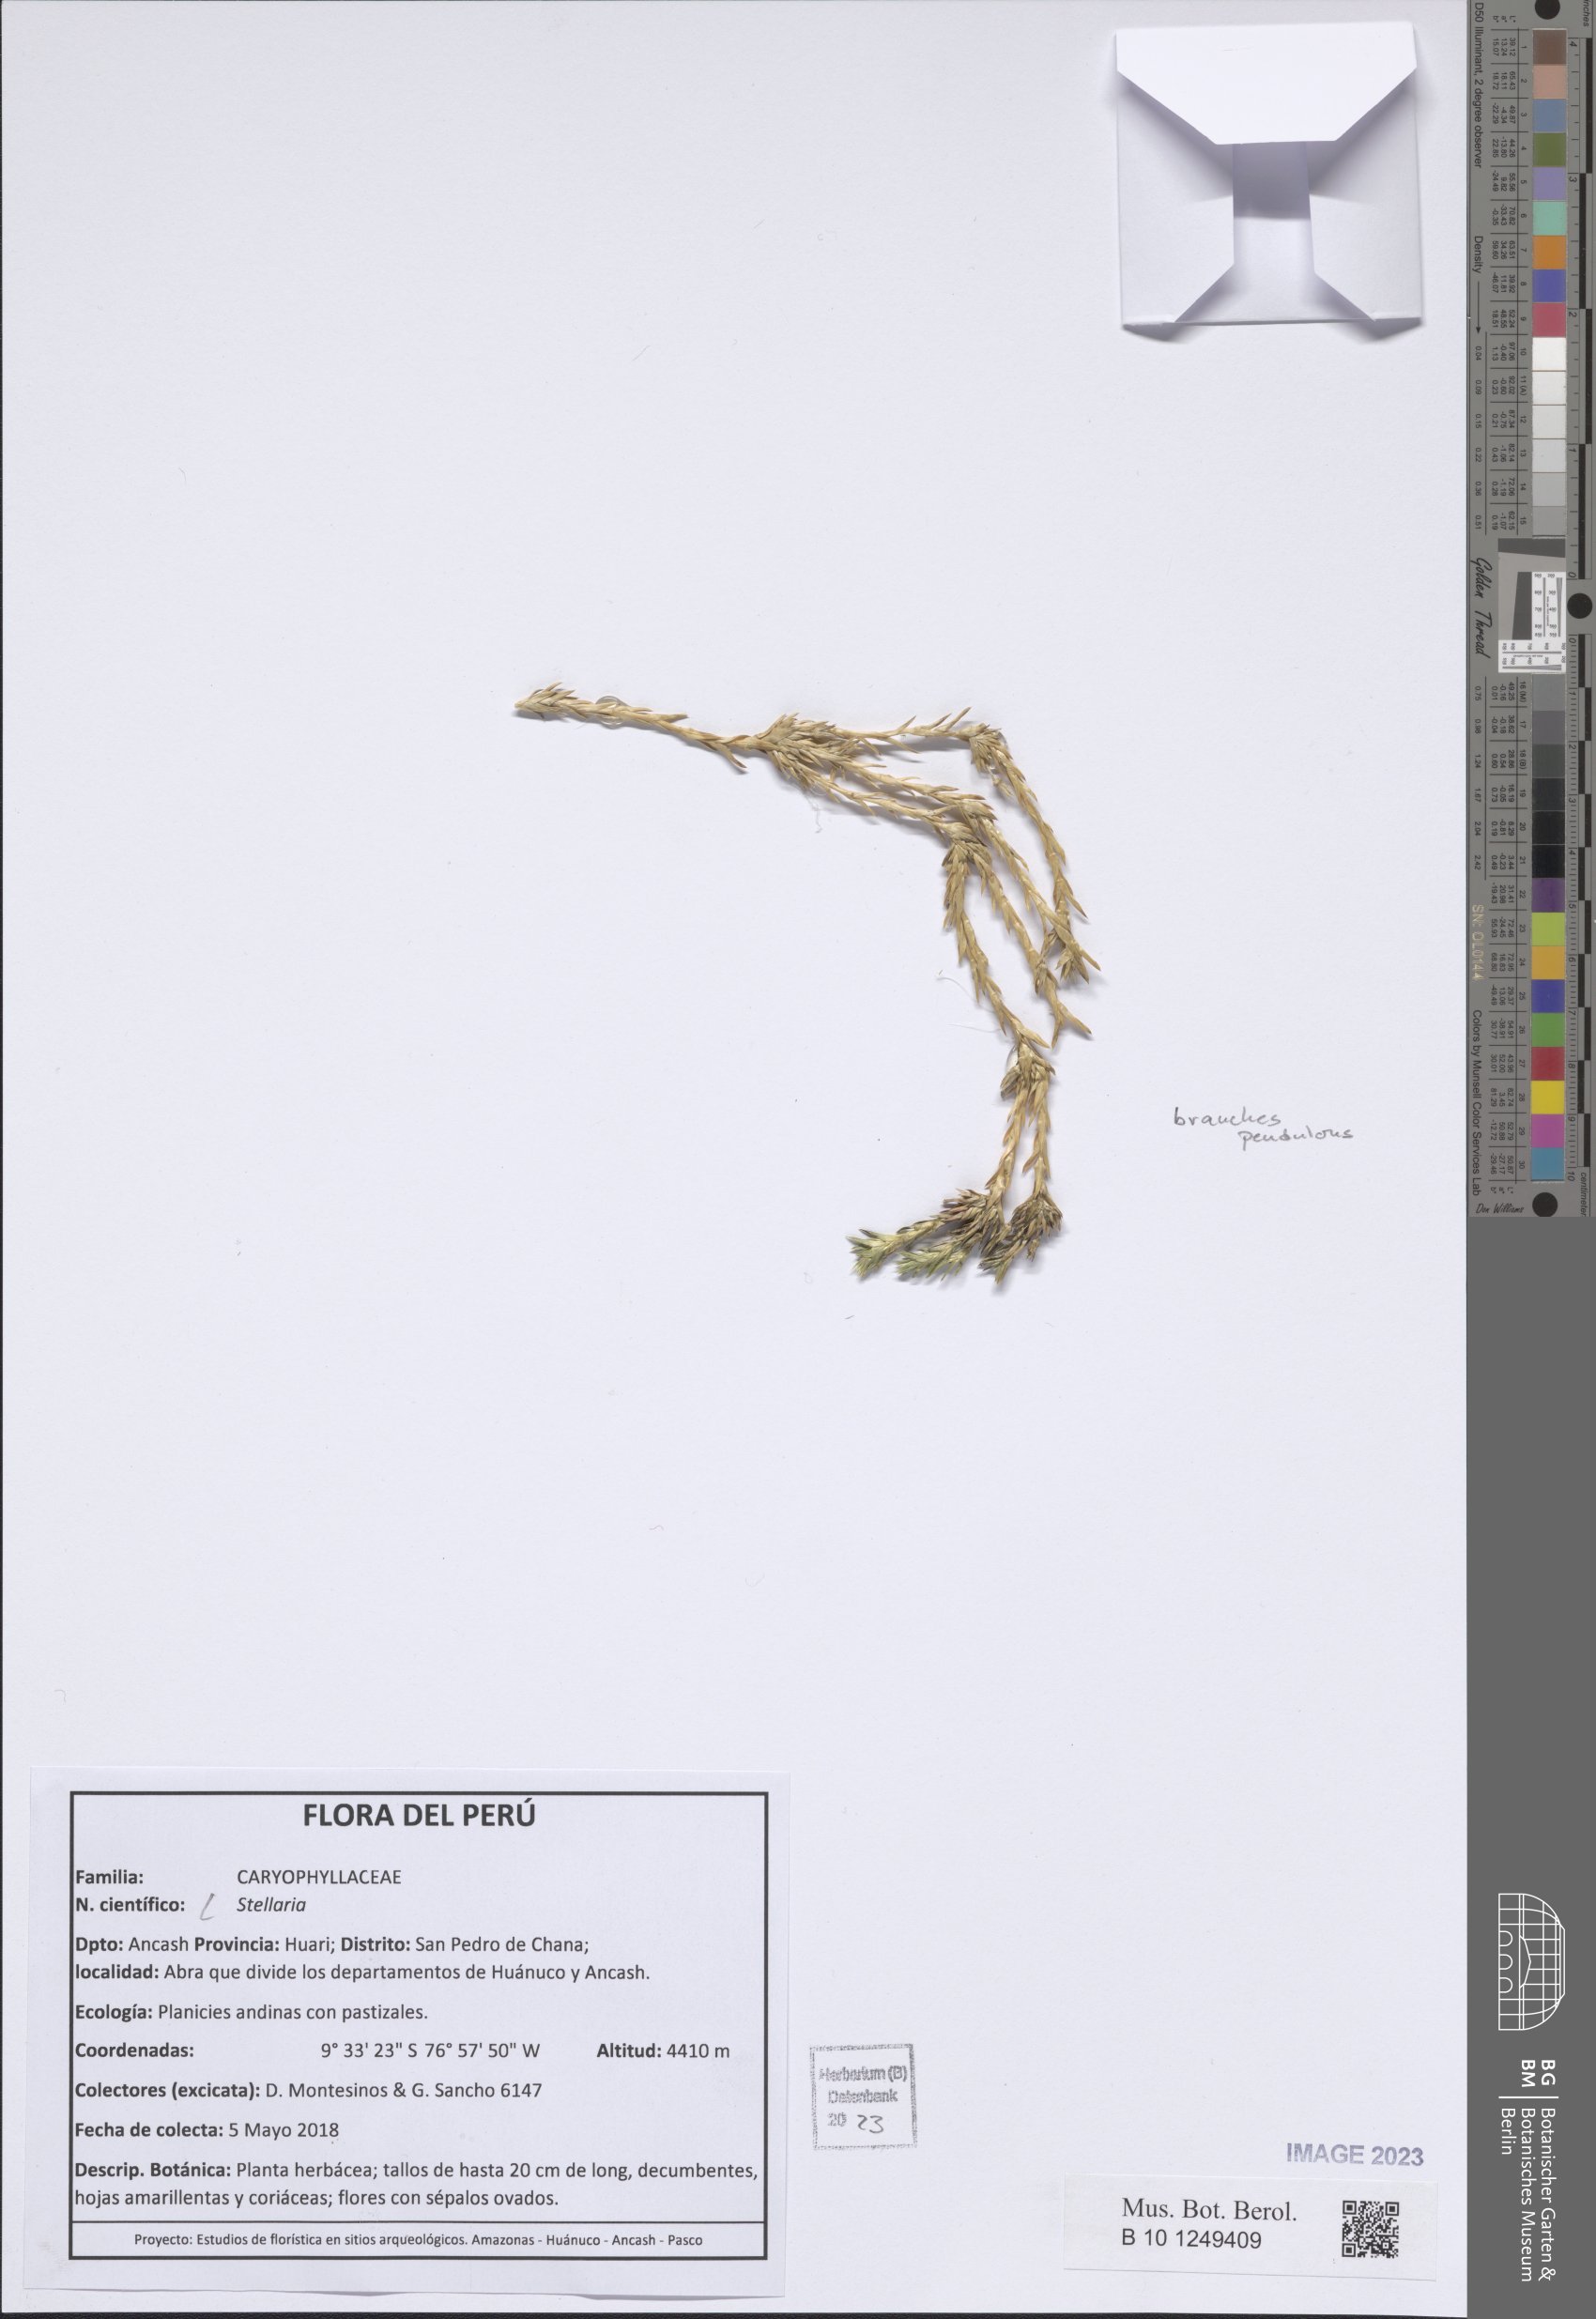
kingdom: Plantae
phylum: Tracheophyta
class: Magnoliopsida
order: Caryophyllales
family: Caryophyllaceae
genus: Stellaria
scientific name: Stellaria
